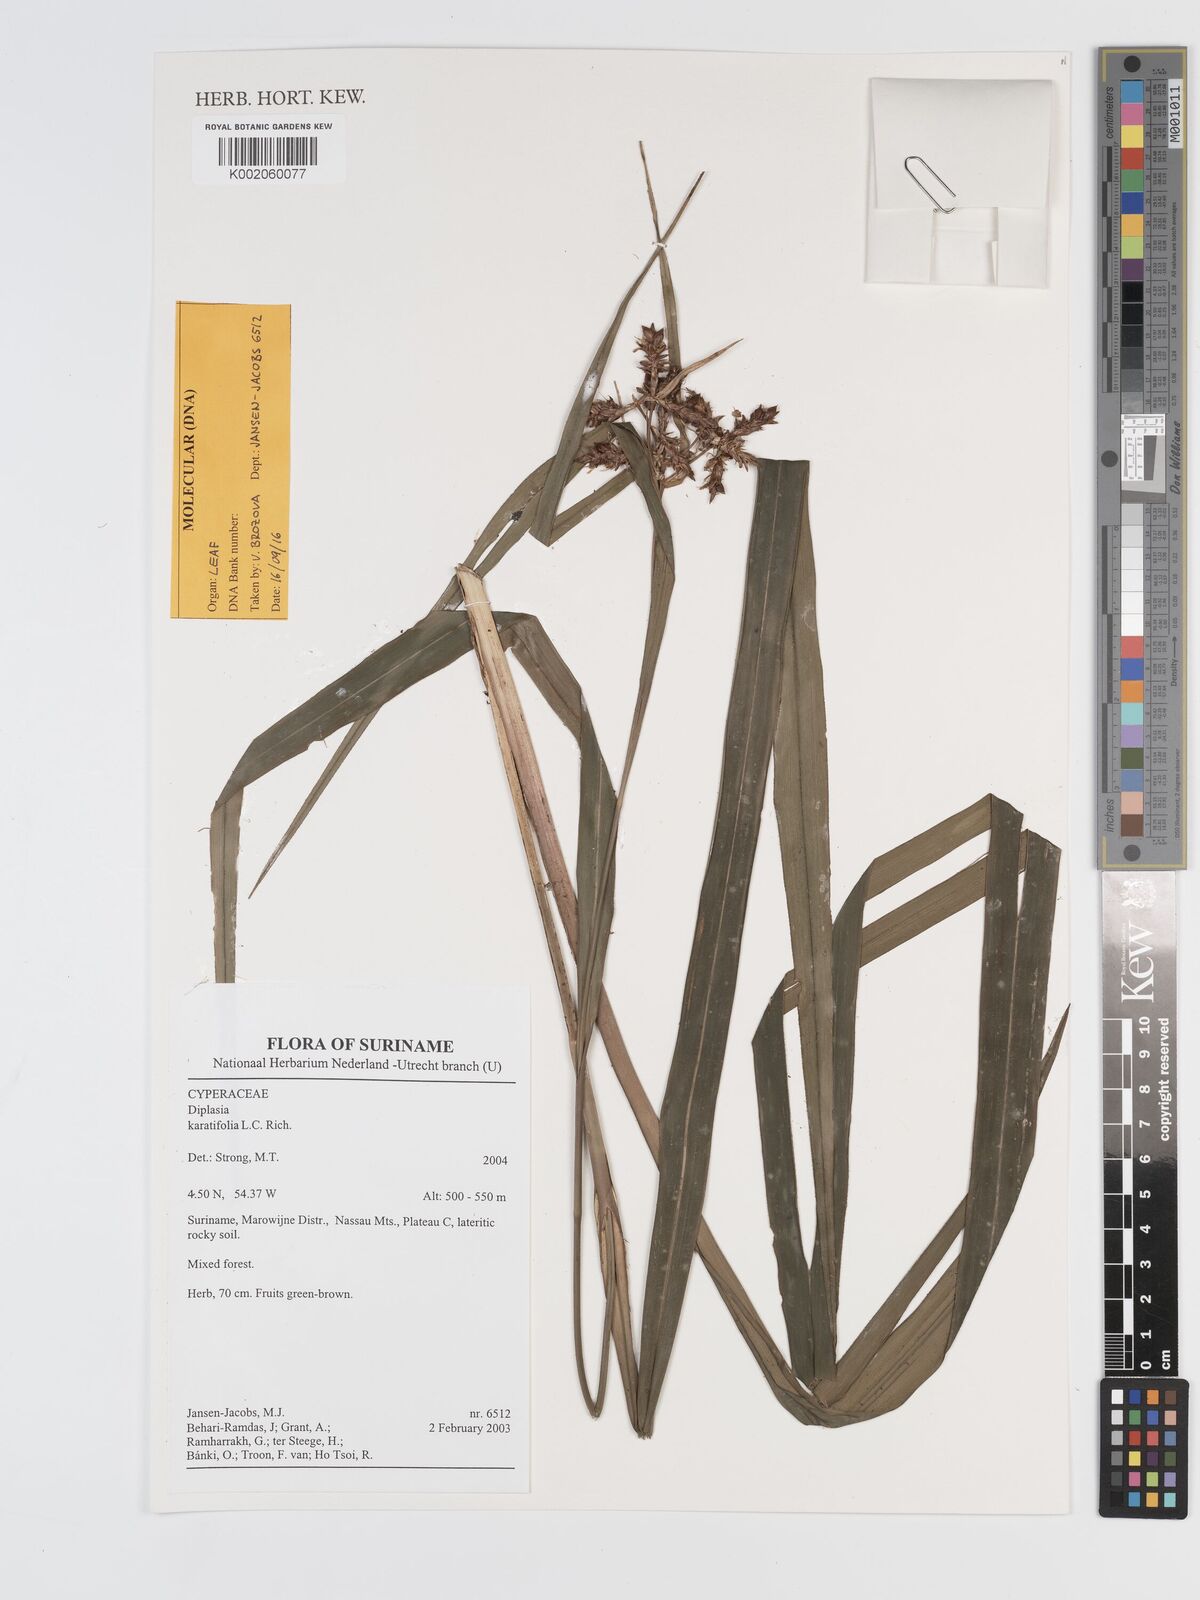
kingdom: Plantae
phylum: Tracheophyta
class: Liliopsida
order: Poales
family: Cyperaceae
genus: Diplasia
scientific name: Diplasia karatifolia
